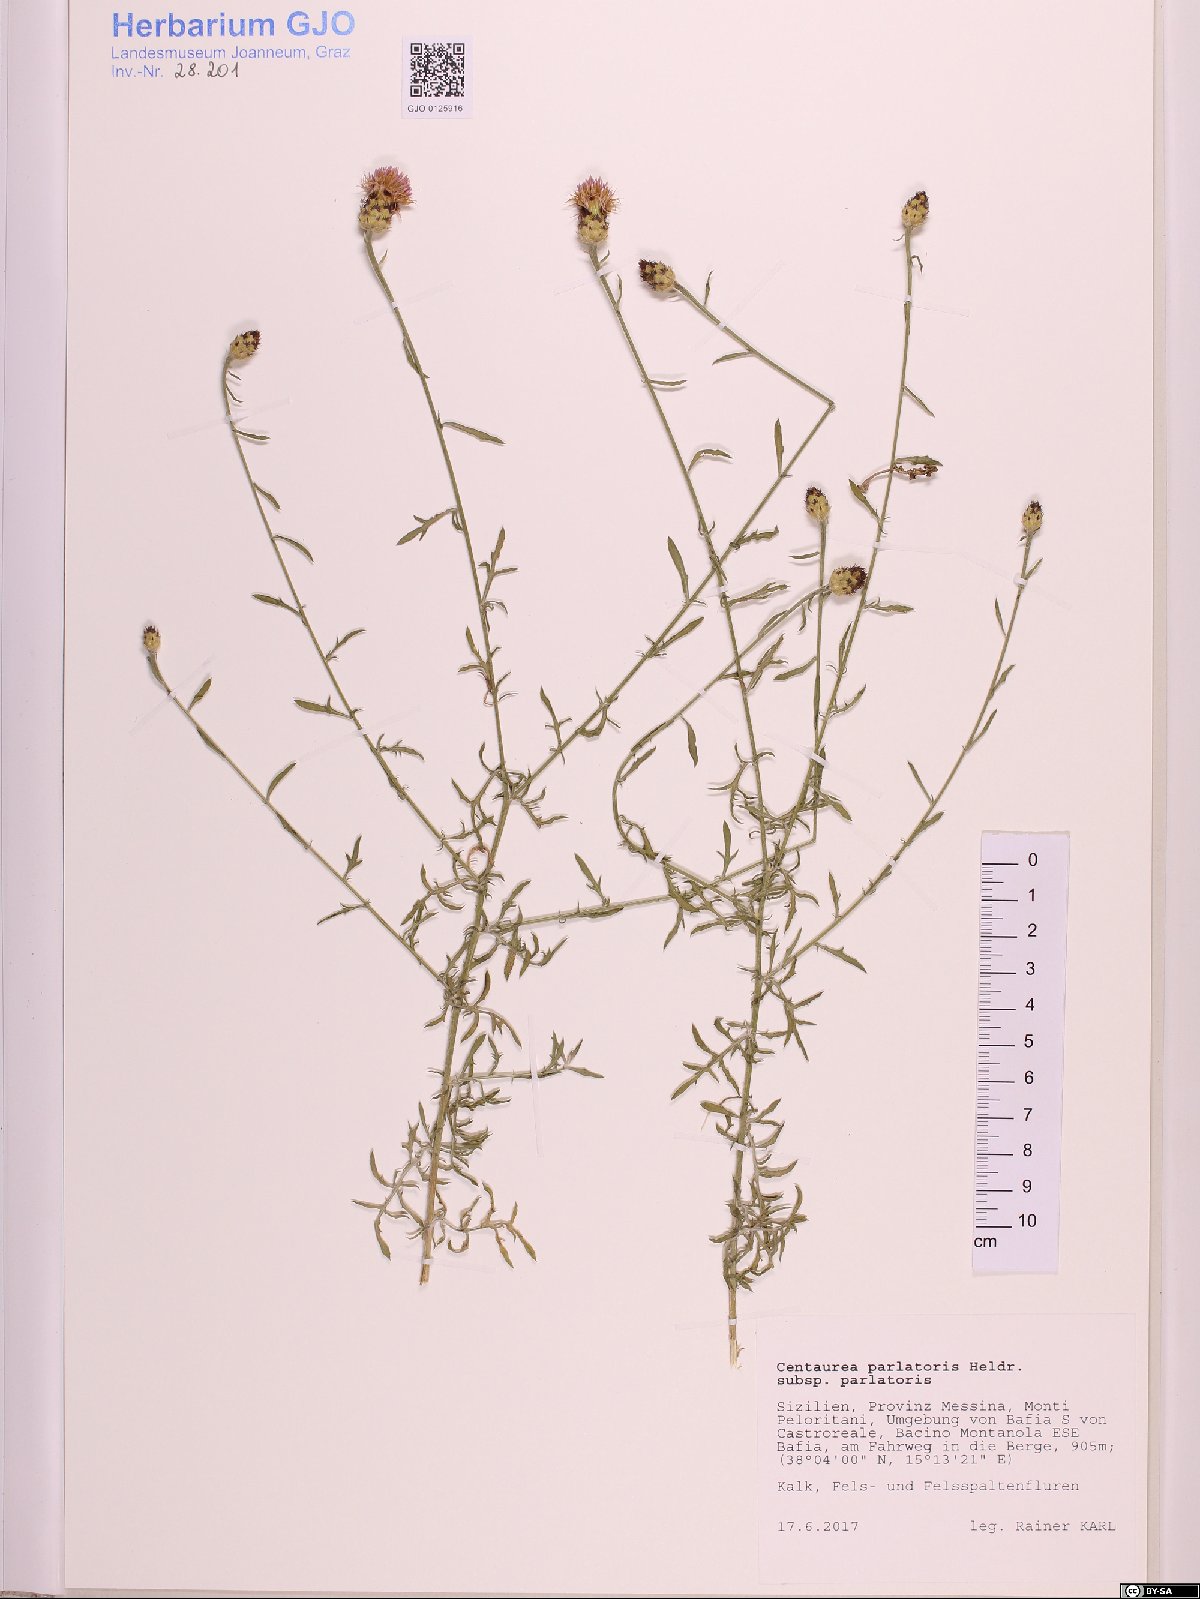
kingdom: Plantae
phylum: Tracheophyta
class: Magnoliopsida
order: Asterales
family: Asteraceae
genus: Centaurea
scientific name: Centaurea parlatoris
